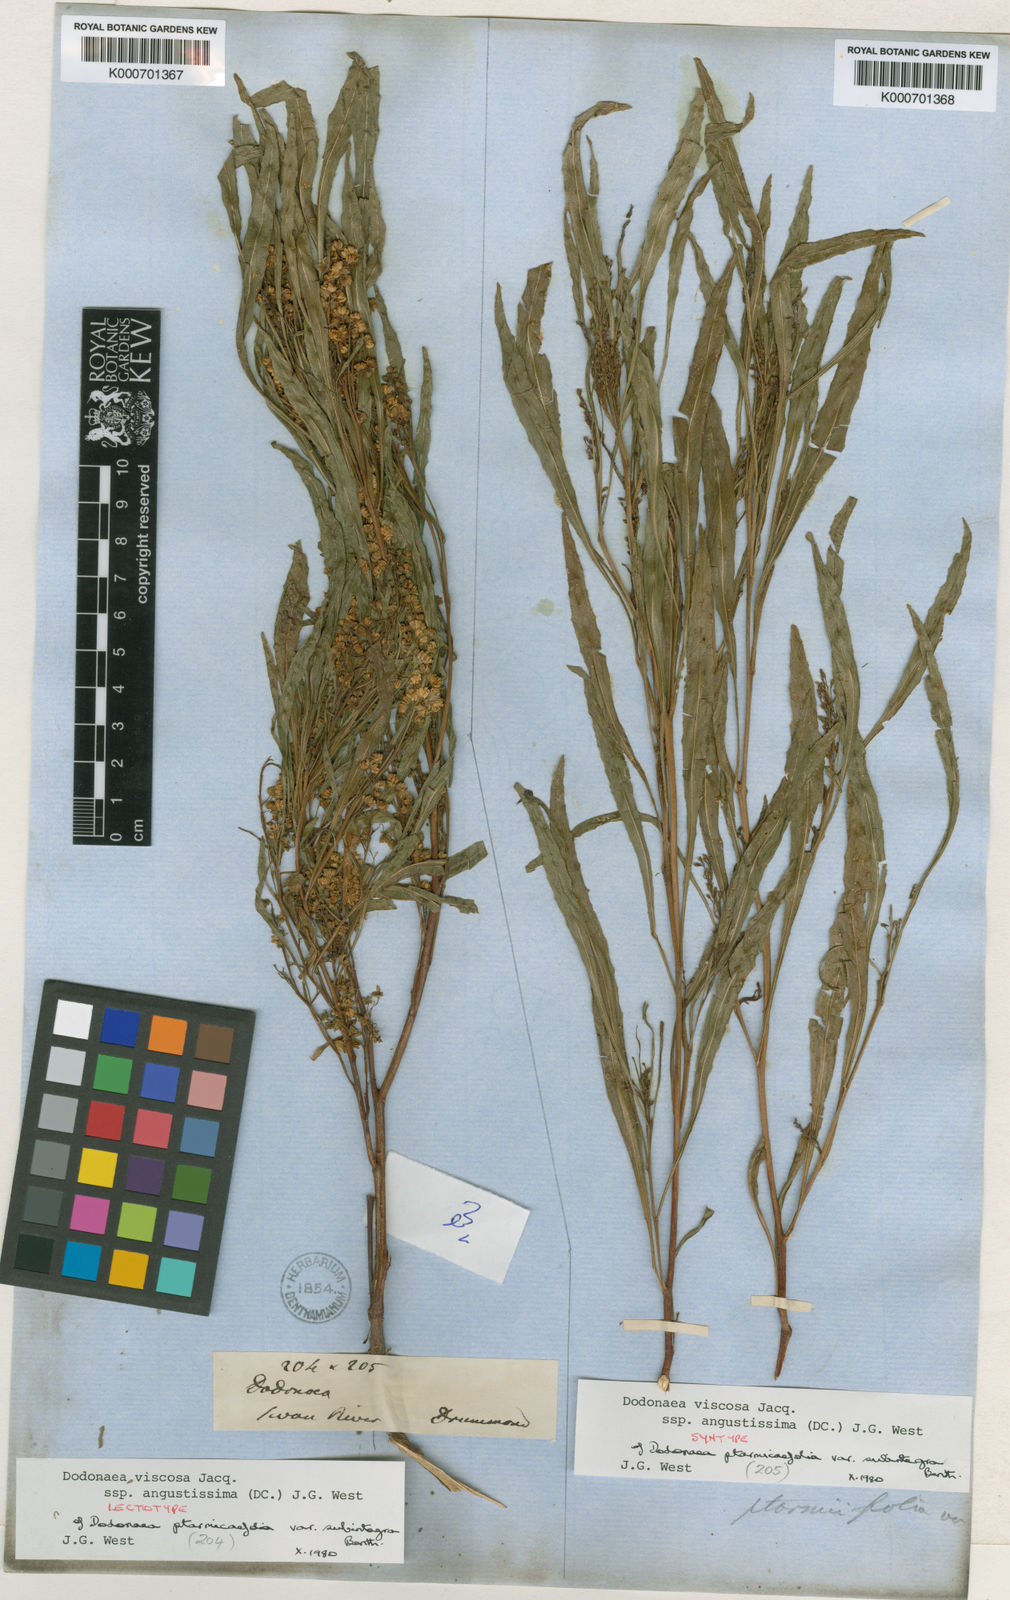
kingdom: Plantae
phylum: Tracheophyta
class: Magnoliopsida
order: Sapindales
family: Sapindaceae
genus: Dodonaea
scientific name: Dodonaea viscosa
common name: Hopbush
